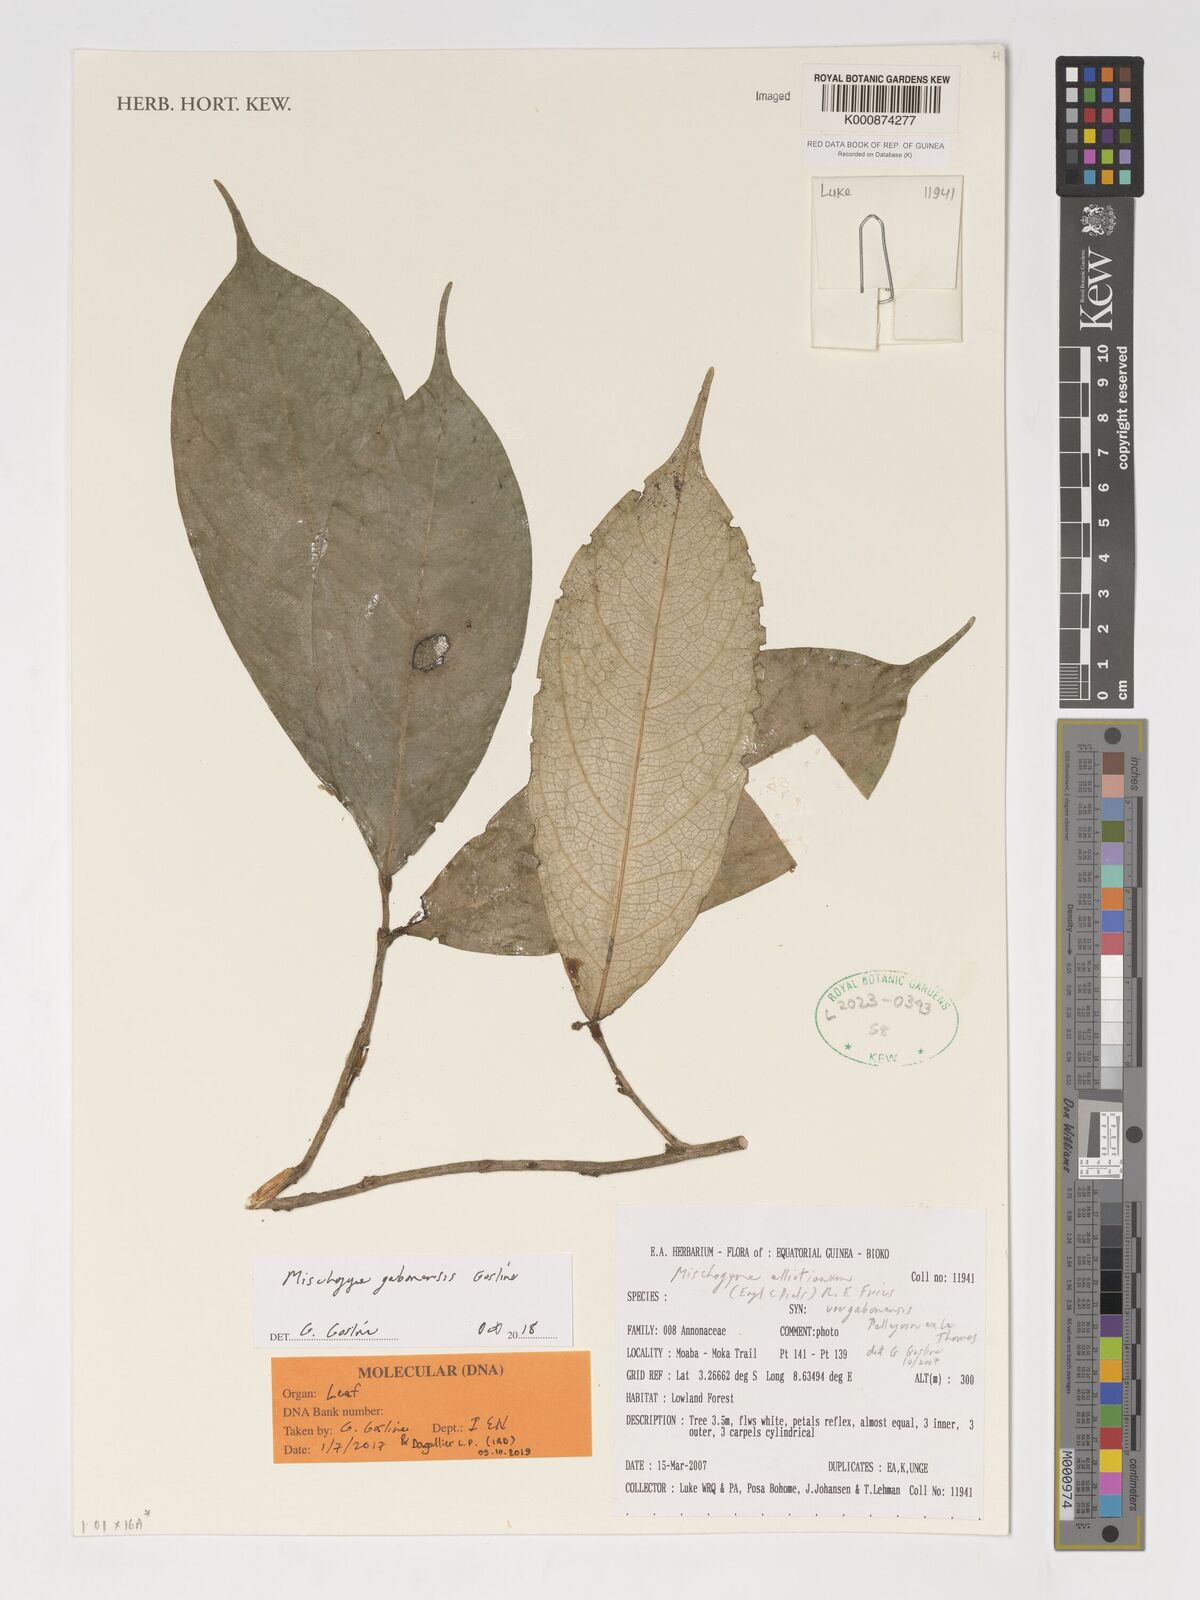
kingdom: Plantae
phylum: Tracheophyta
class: Magnoliopsida
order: Magnoliales
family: Annonaceae
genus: Mischogyne
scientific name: Mischogyne gabonensis
